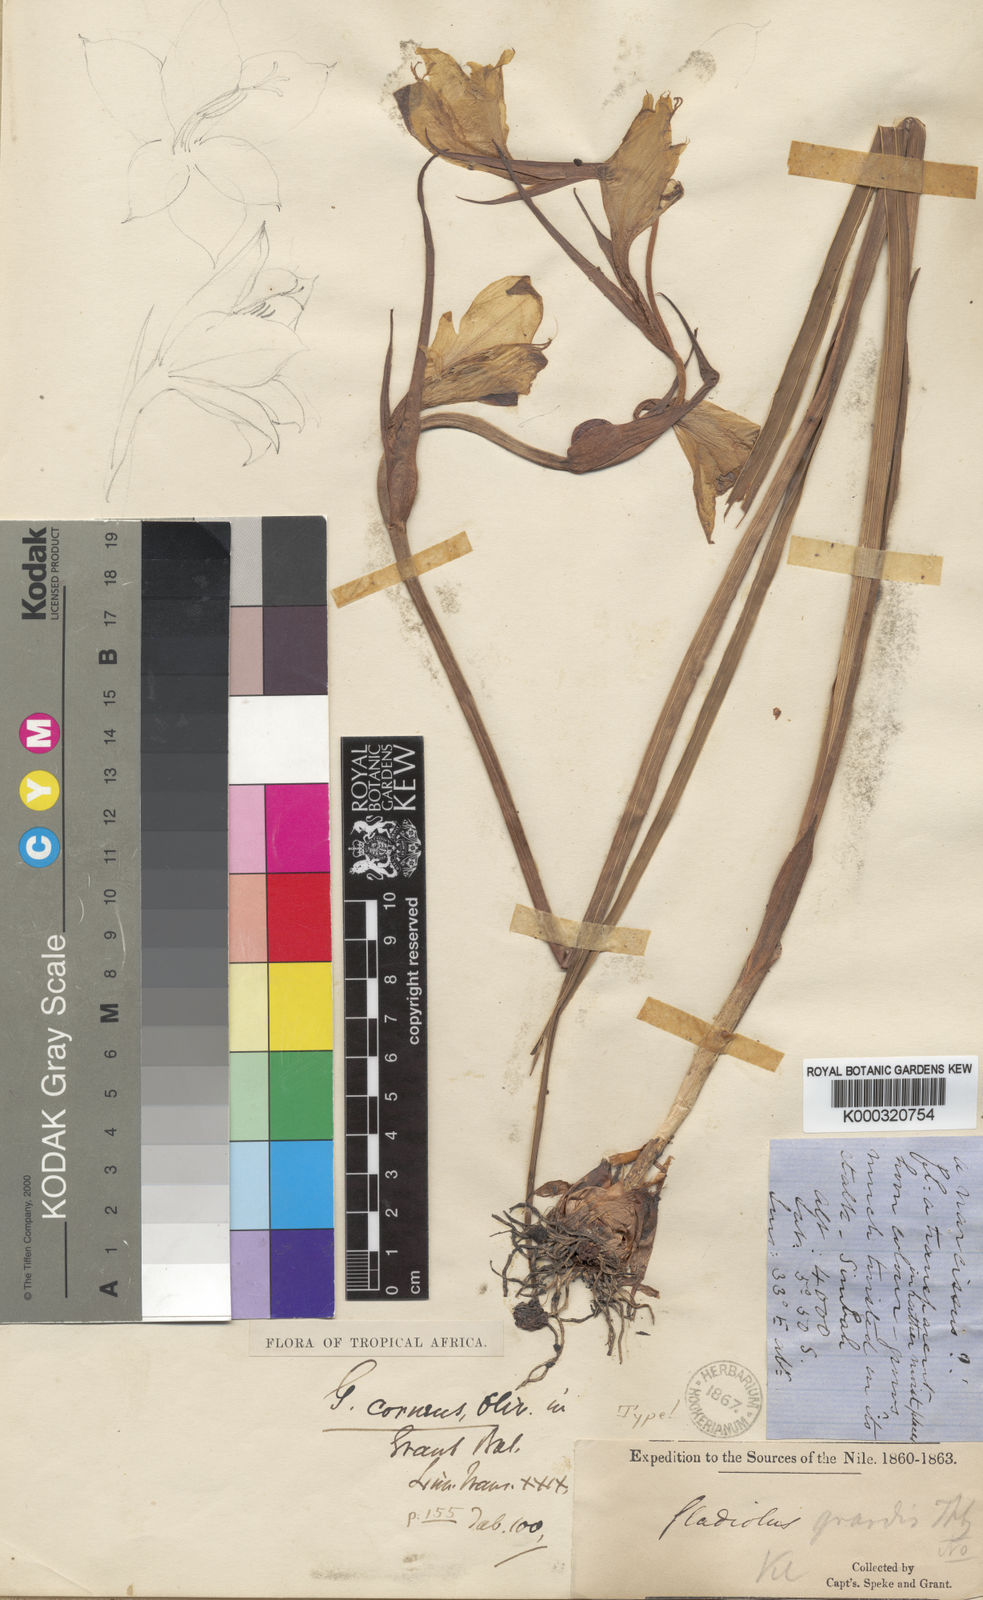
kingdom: Plantae
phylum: Tracheophyta
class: Liliopsida
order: Asparagales
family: Iridaceae
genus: Gladiolus
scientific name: Gladiolus dalenii
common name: Cornflag
